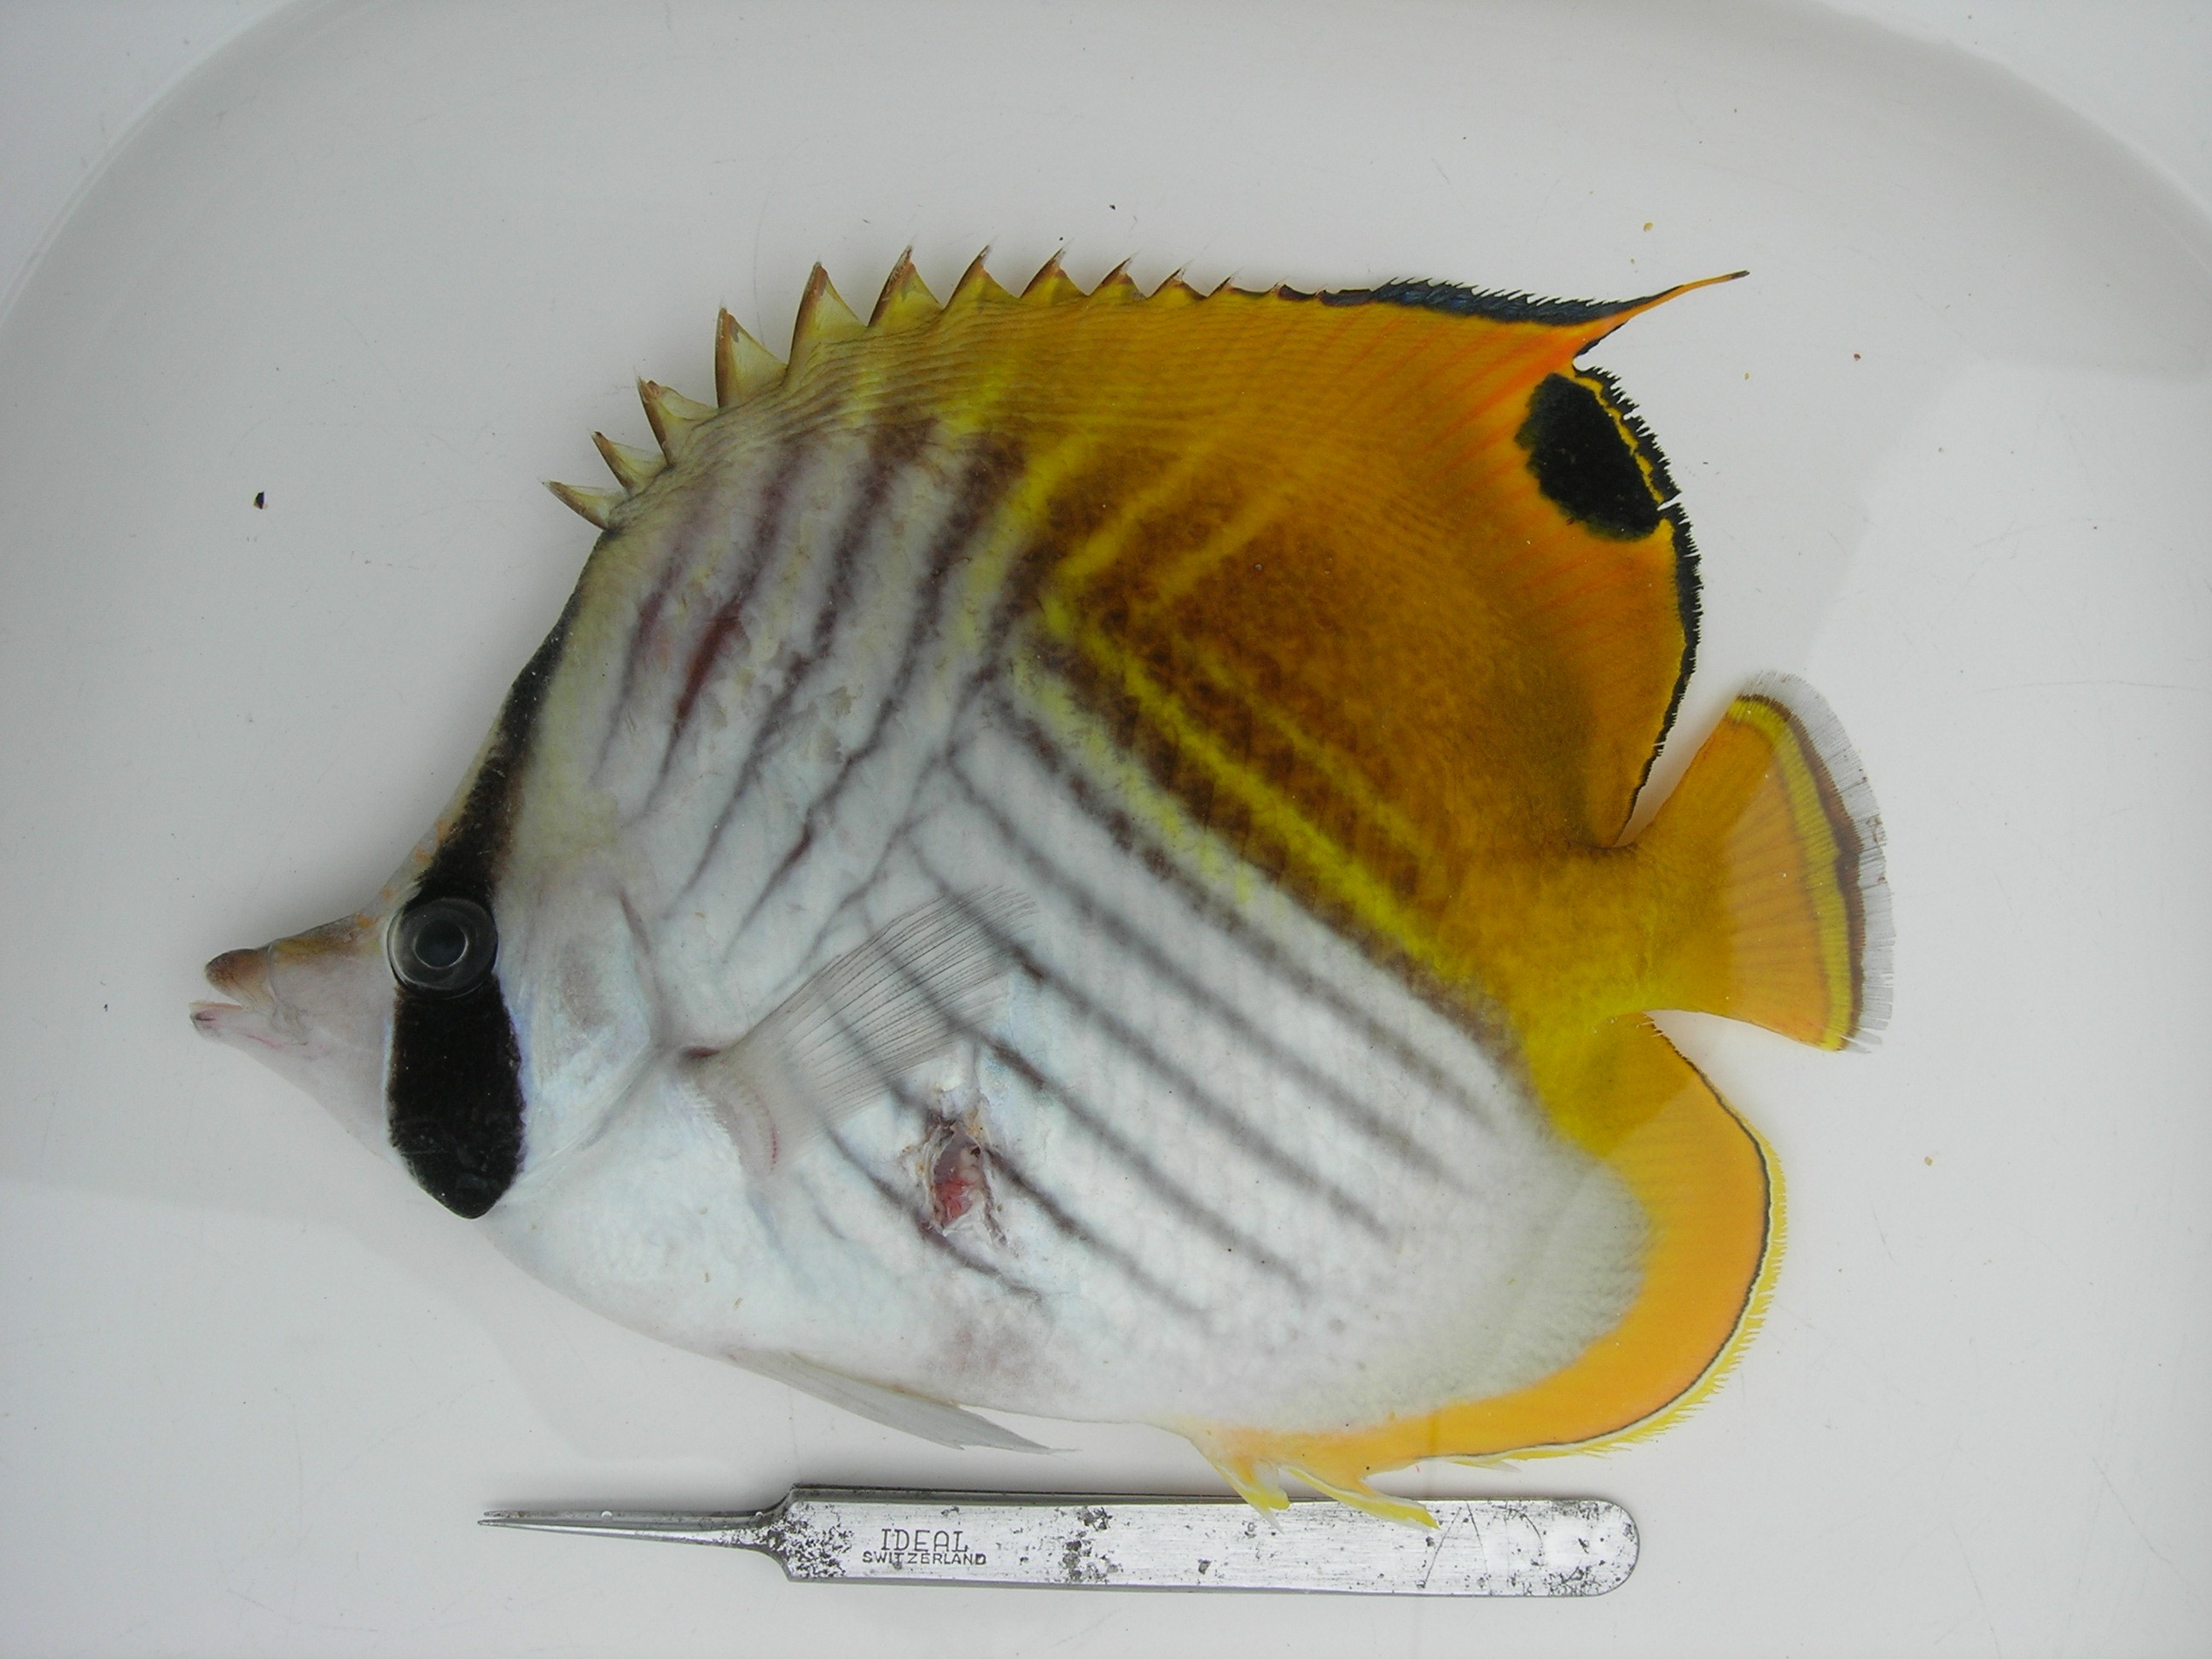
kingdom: Animalia
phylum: Chordata
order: Perciformes
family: Chaetodontidae
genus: Chaetodon
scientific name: Chaetodon auriga
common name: Threadfin butterflyfish
